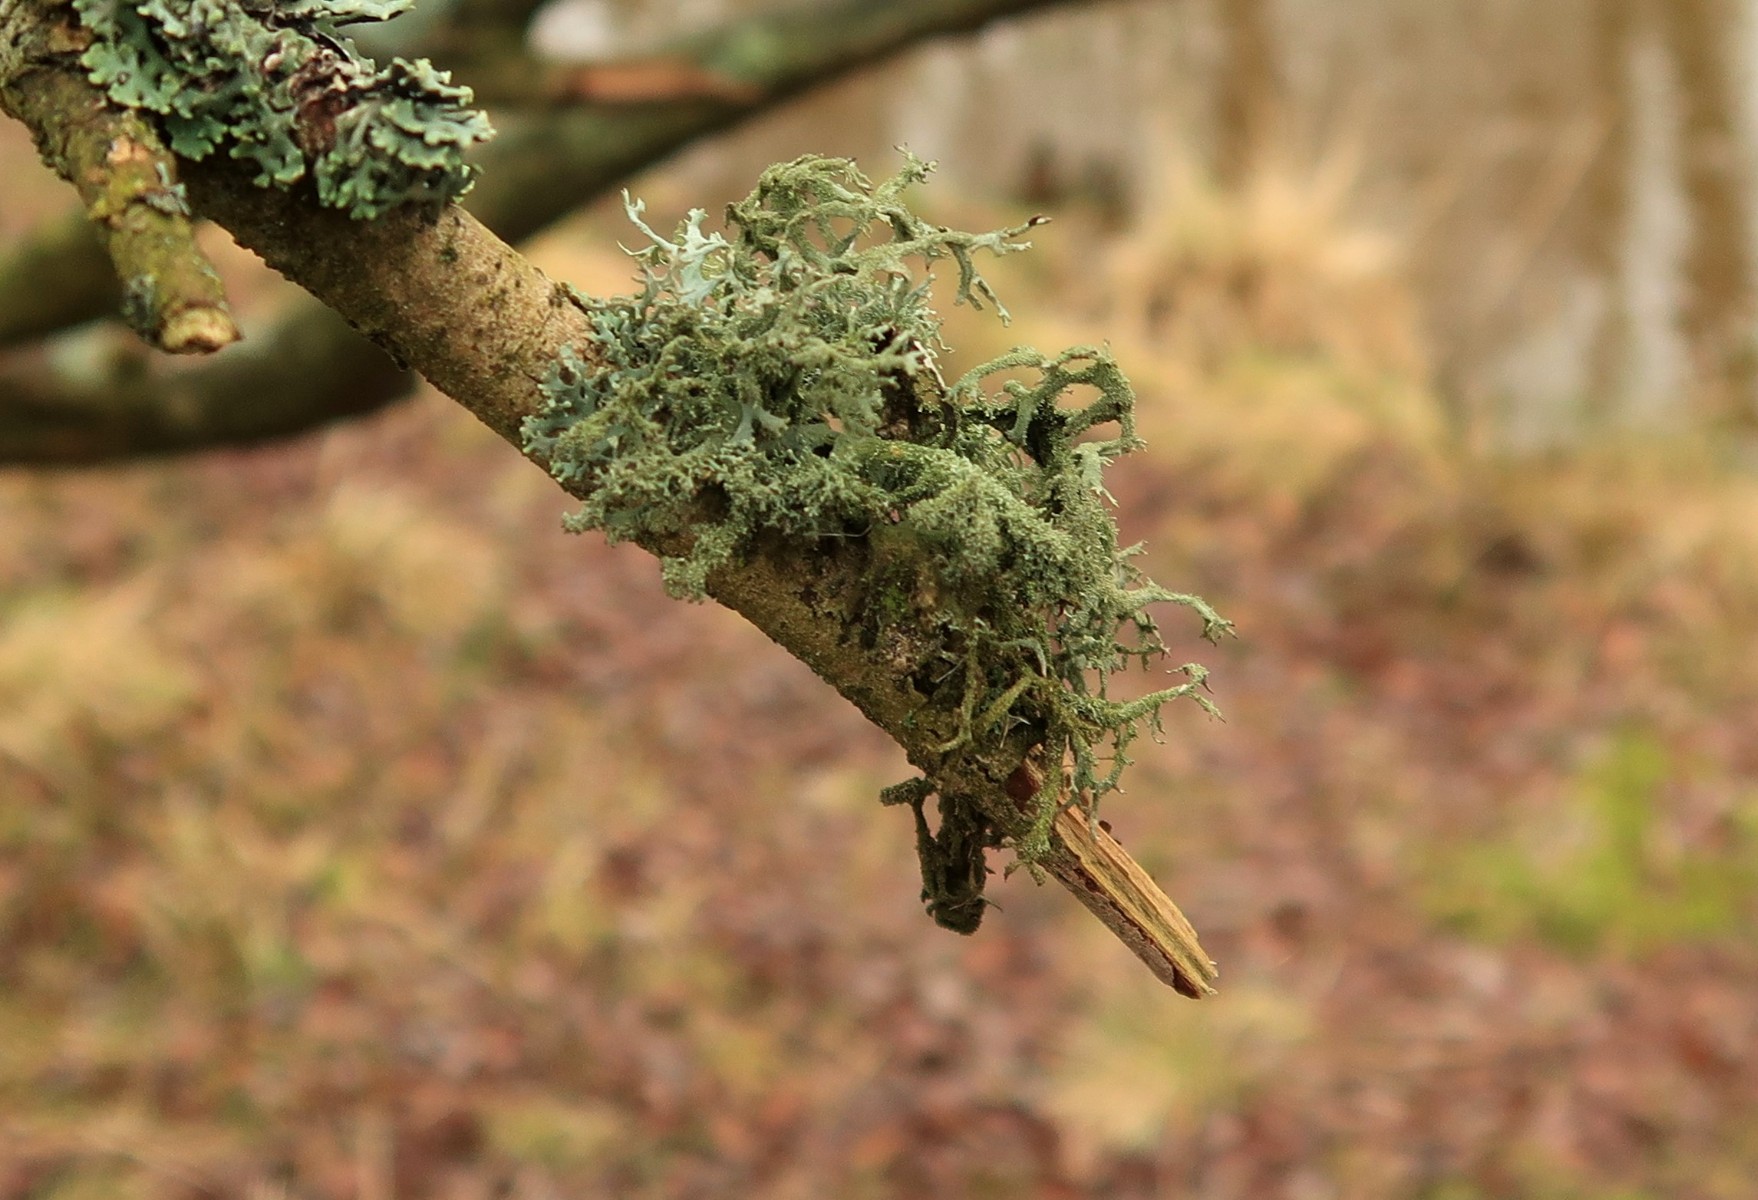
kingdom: Fungi
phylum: Ascomycota
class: Lecanoromycetes
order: Lecanorales
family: Parmeliaceae
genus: Pseudevernia
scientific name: Pseudevernia furfuracea
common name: grå fyrrelav
